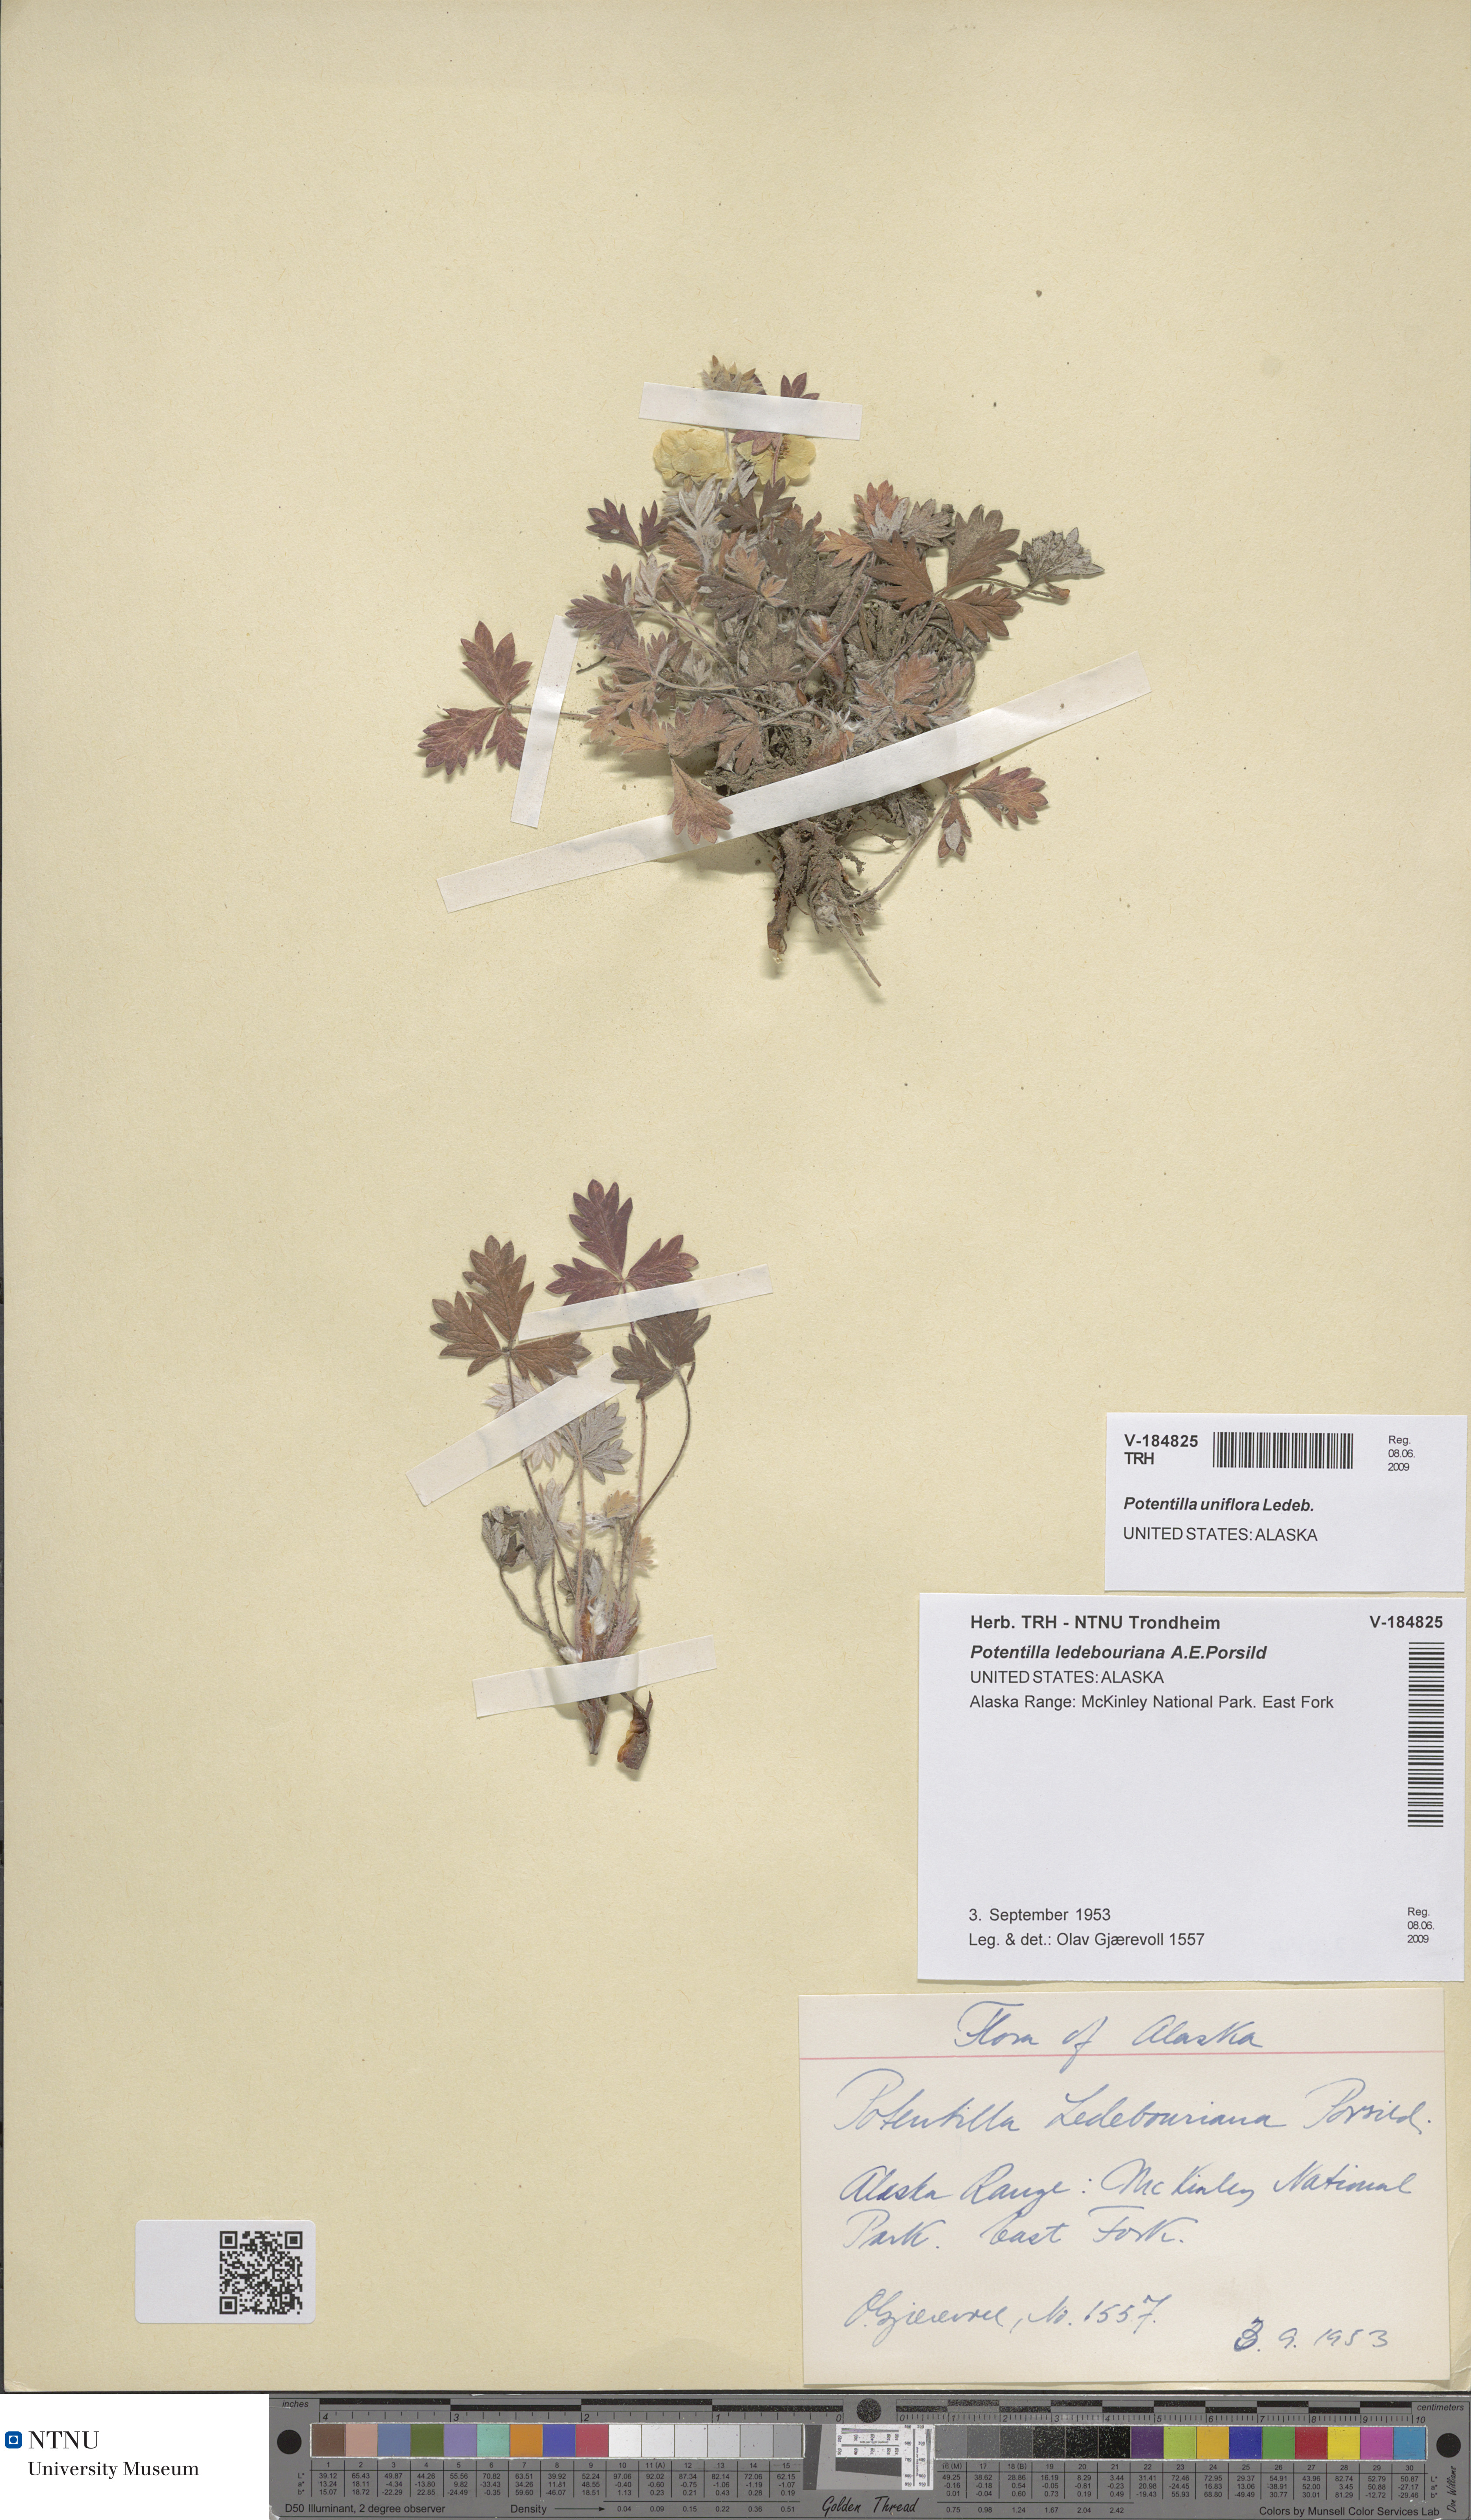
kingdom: Plantae
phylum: Tracheophyta
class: Magnoliopsida
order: Rosales
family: Rosaceae
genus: Potentilla
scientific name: Potentilla uniflora
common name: One-flowered cinquefoil
